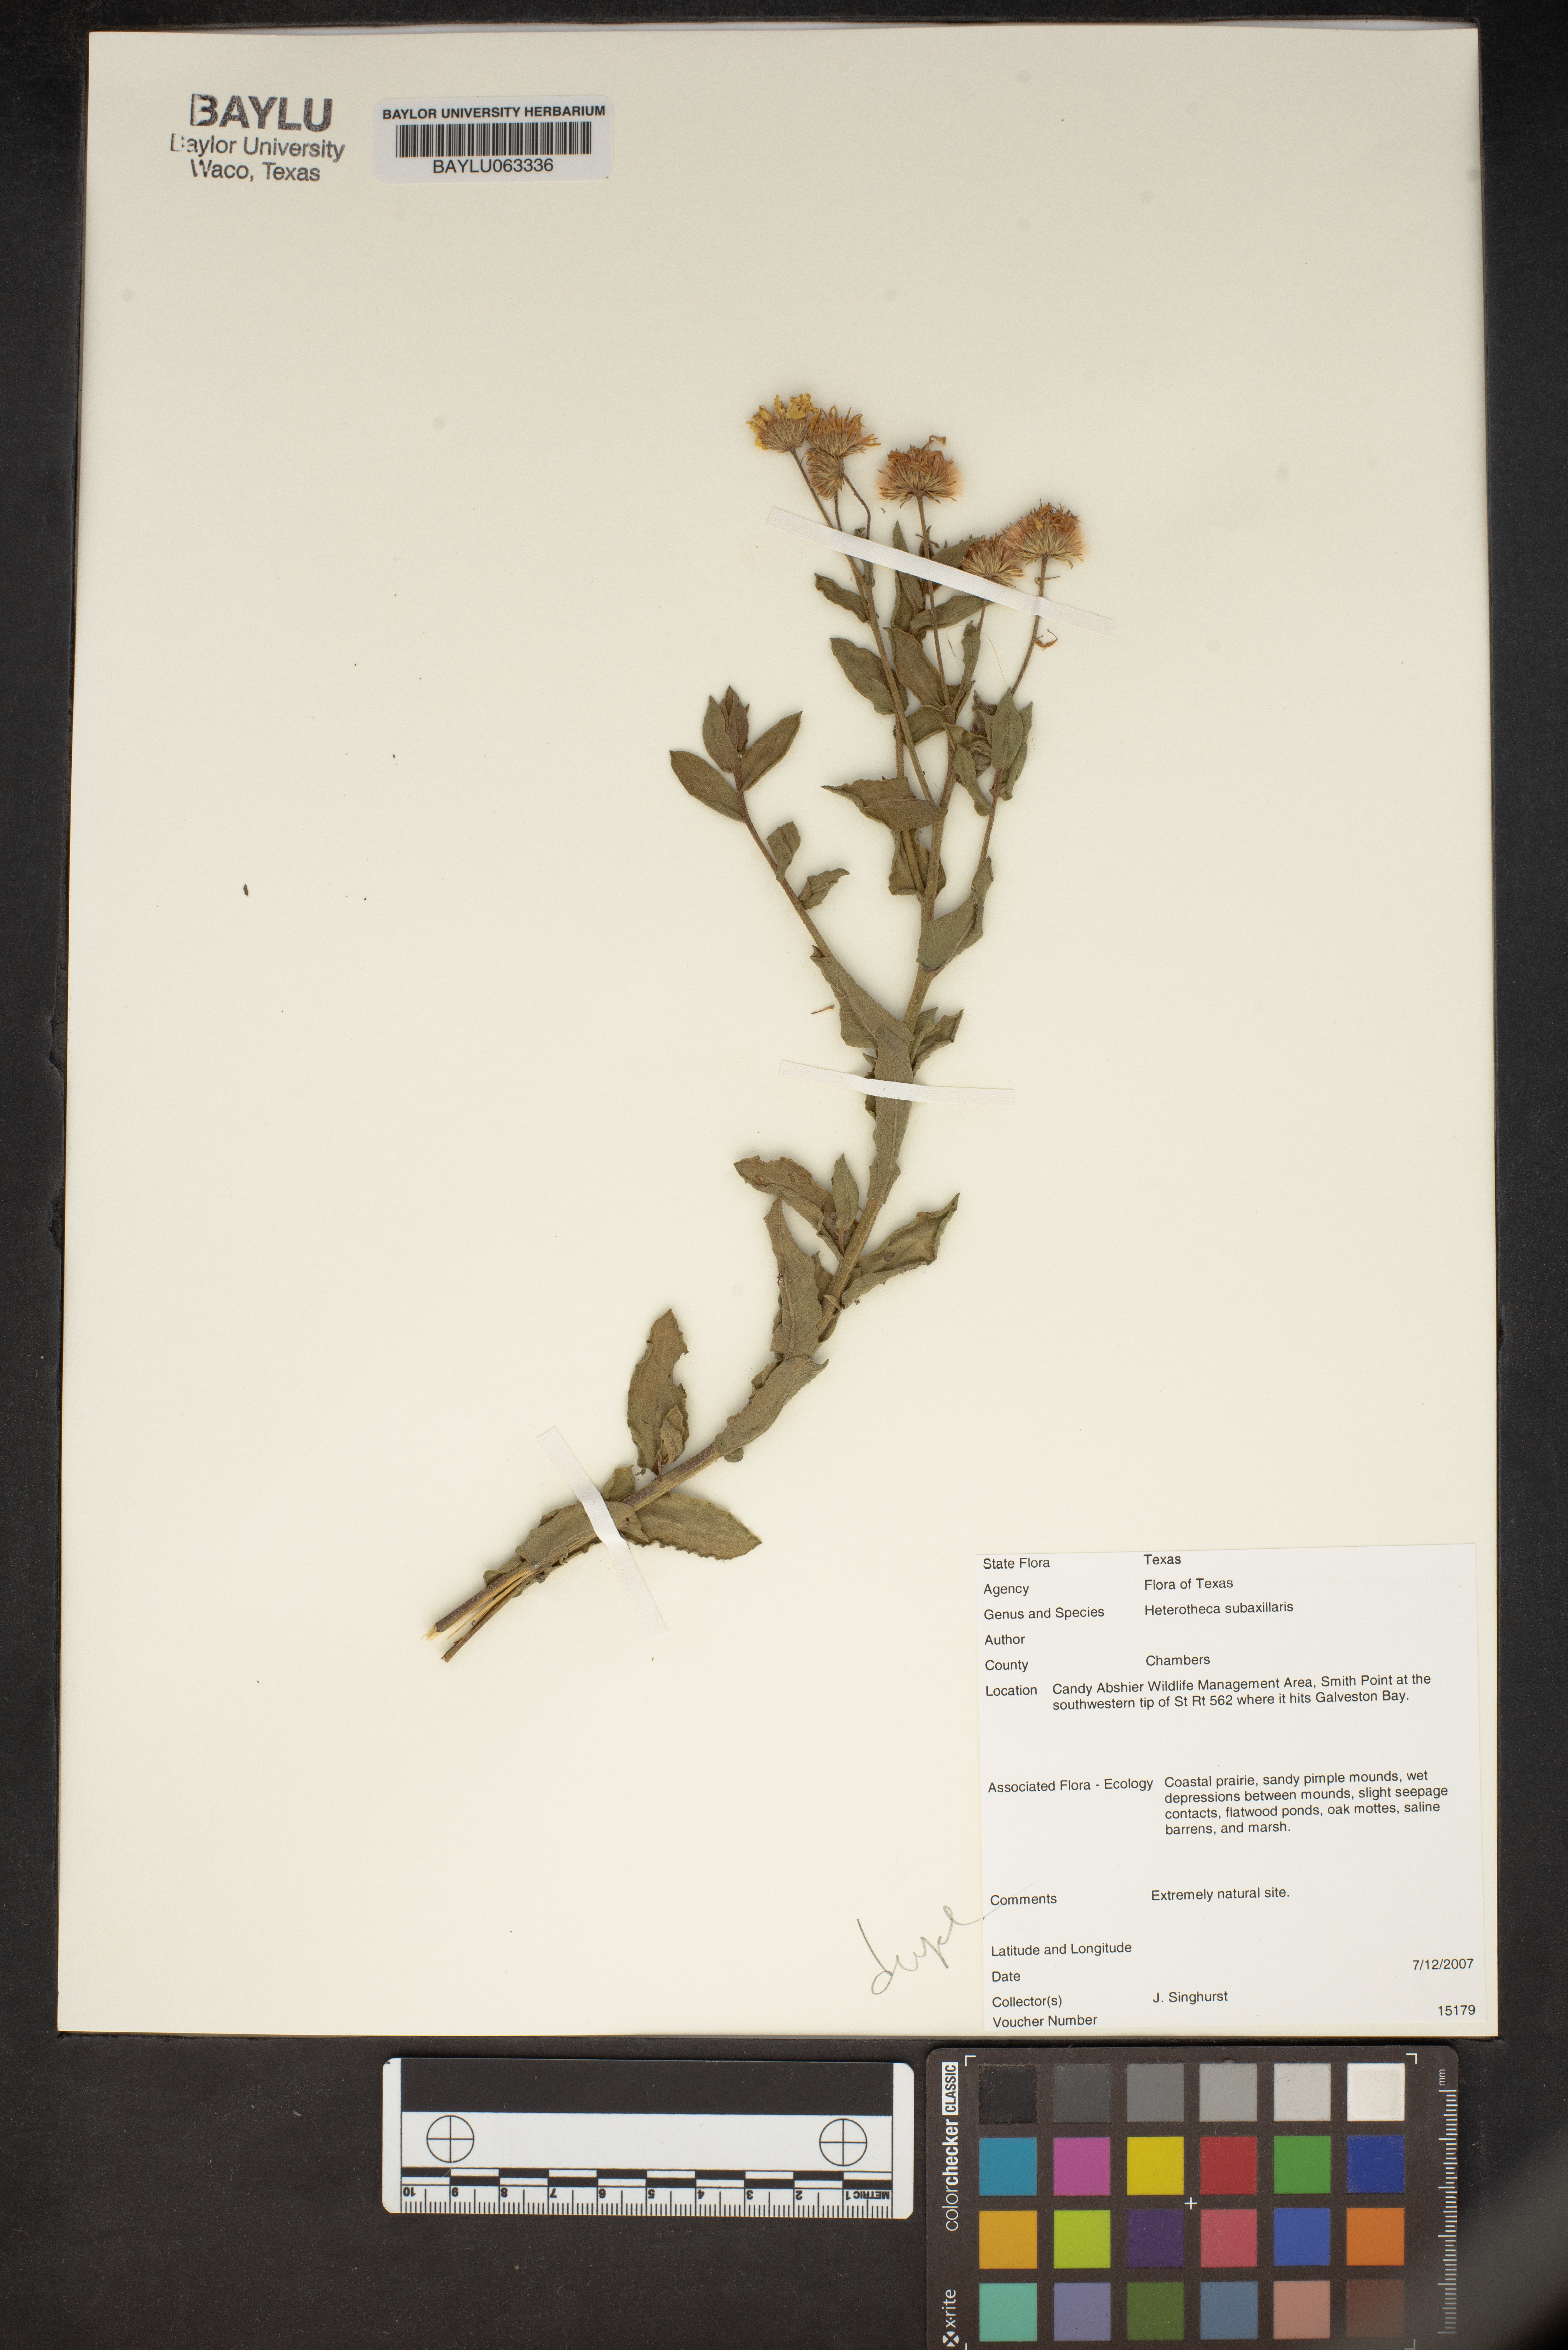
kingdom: Plantae
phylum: Tracheophyta
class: Magnoliopsida
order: Asterales
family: Asteraceae
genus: Heterotheca
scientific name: Heterotheca subaxillaris
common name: Camphorweed
